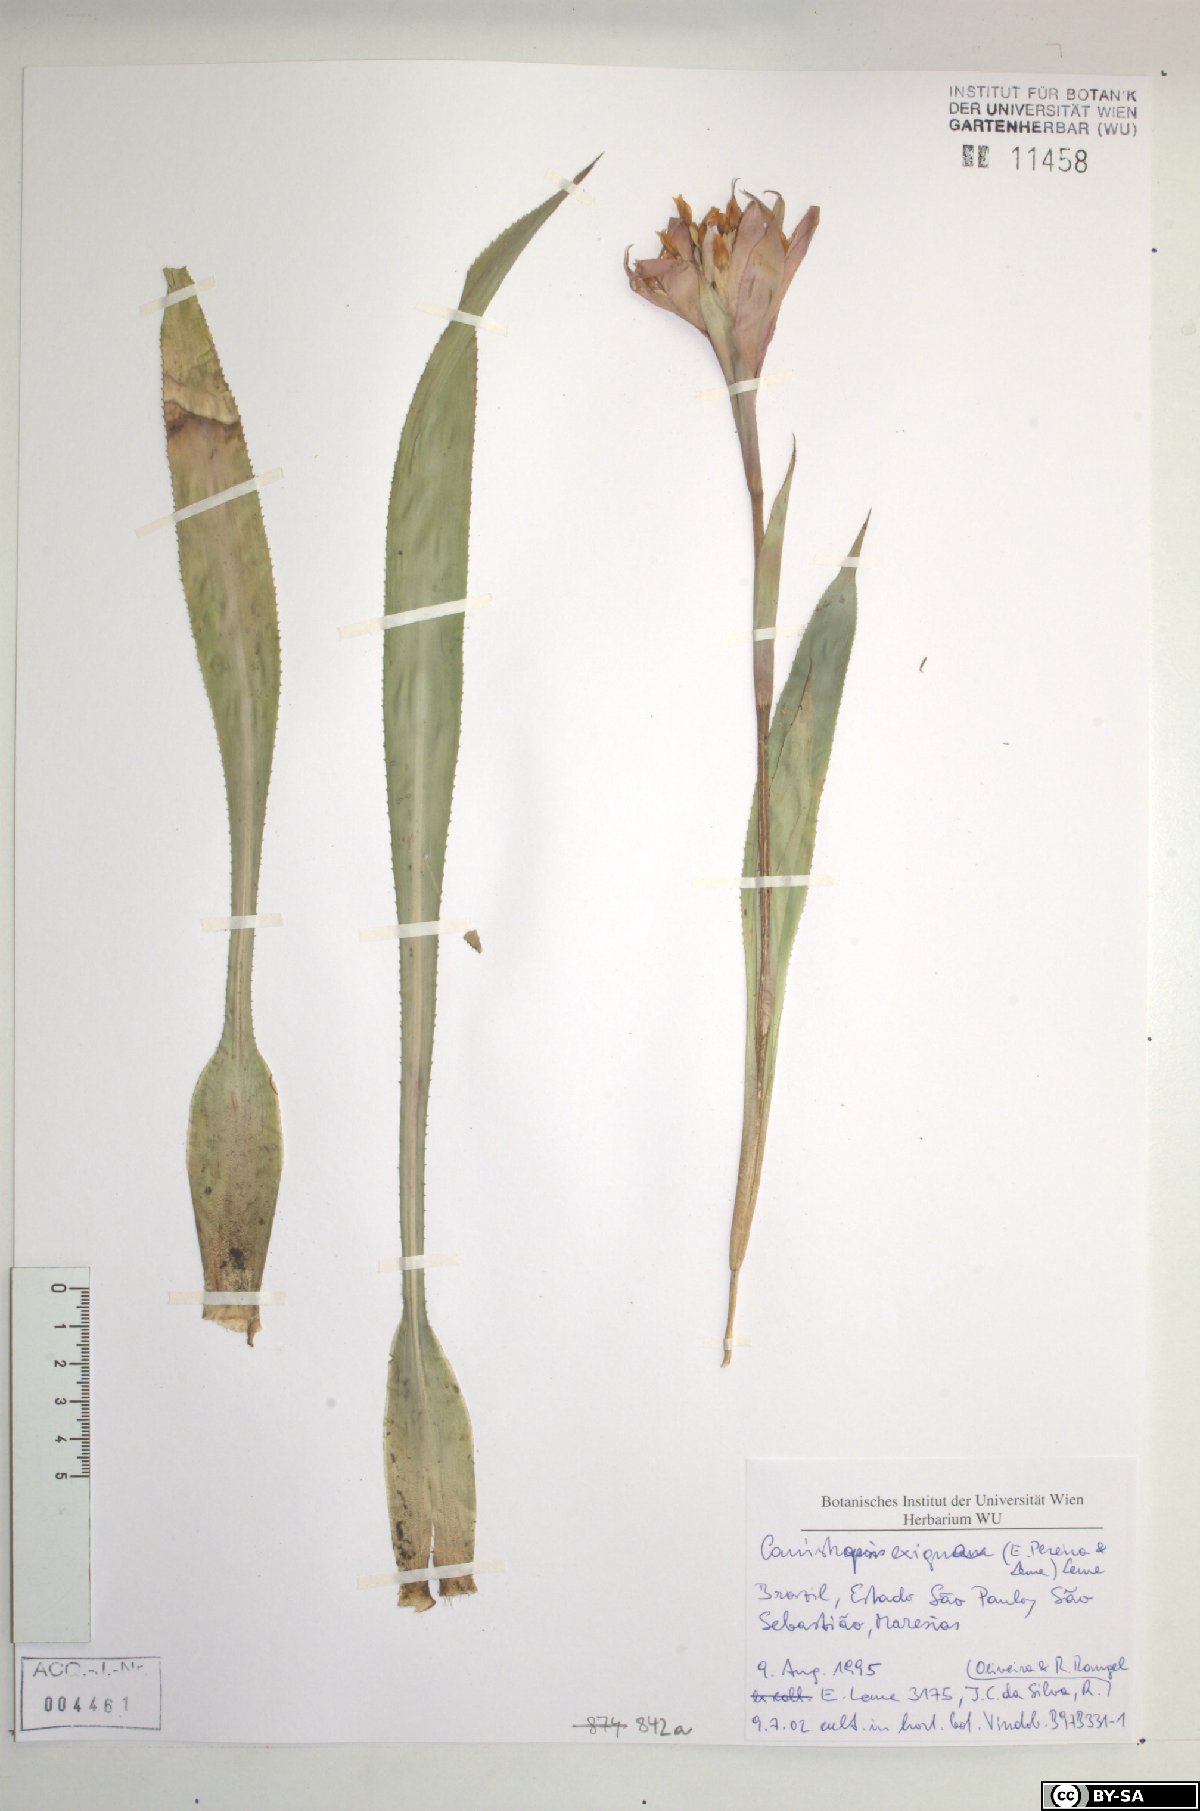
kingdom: Plantae
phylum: Tracheophyta
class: Liliopsida
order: Poales
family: Bromeliaceae
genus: Canistropsis
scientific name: Canistropsis exigua
